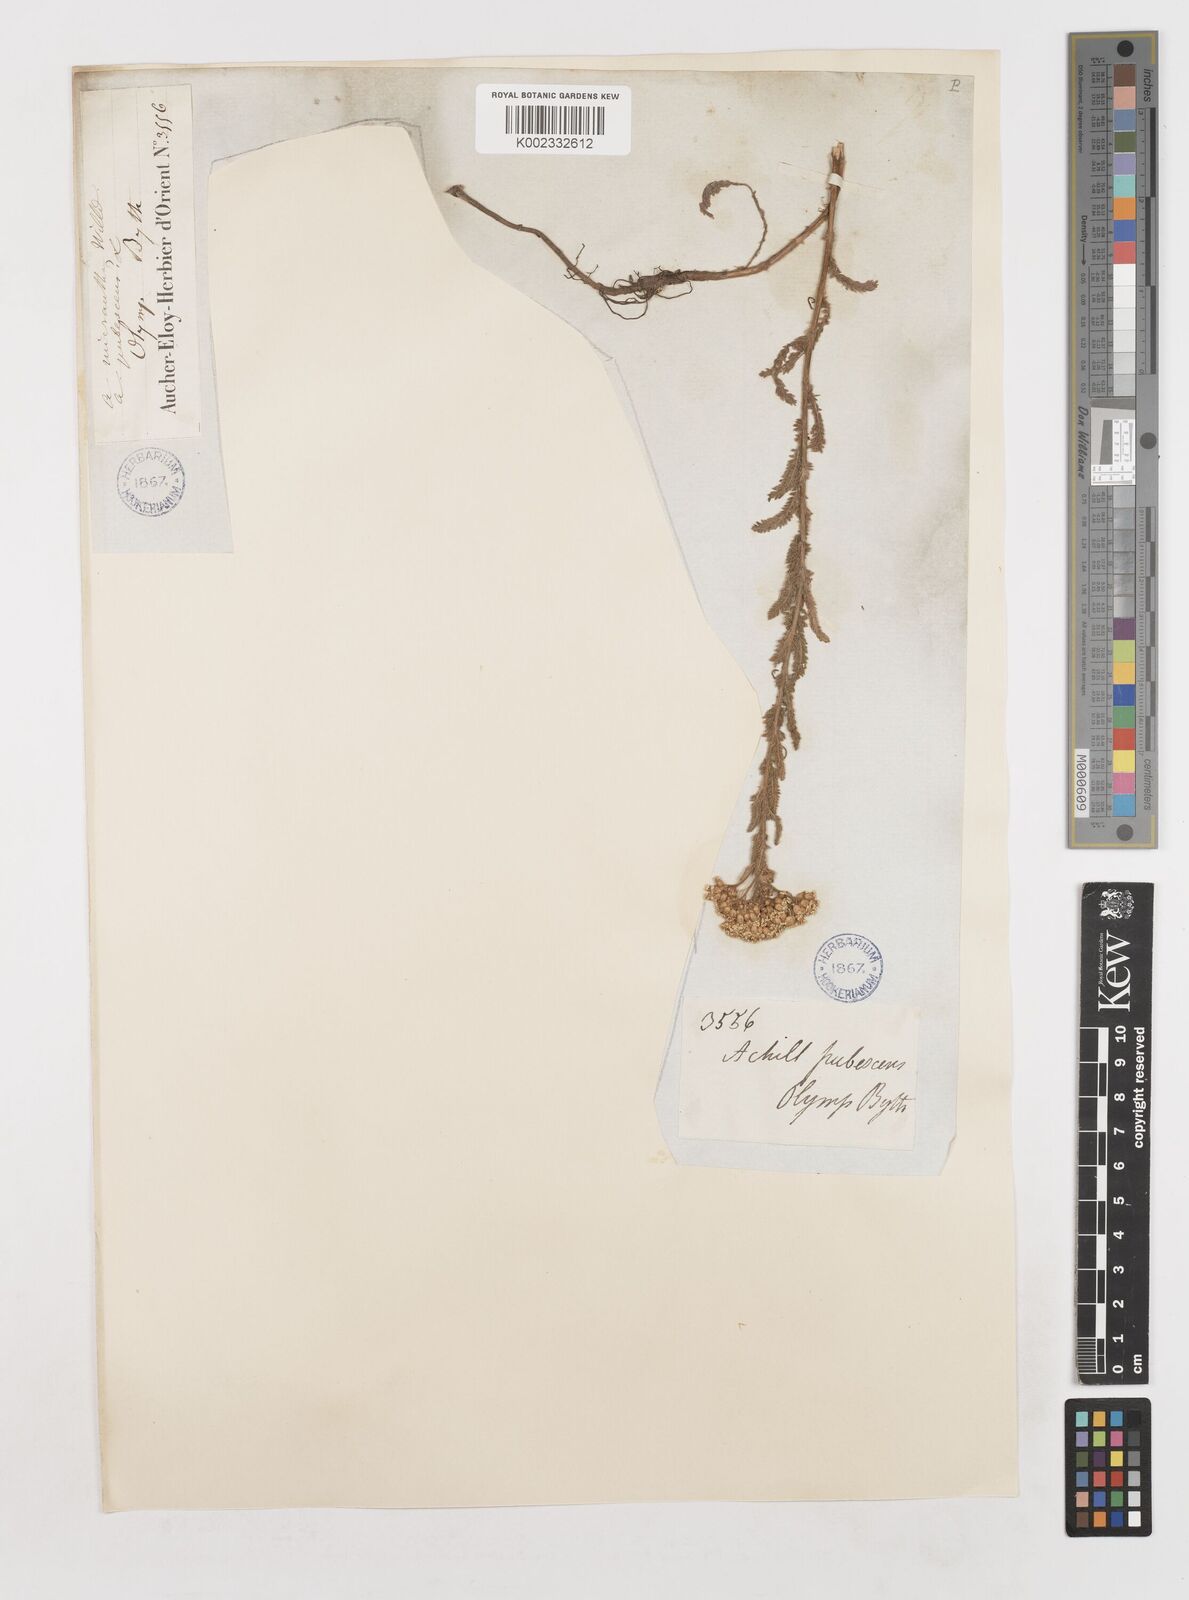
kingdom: Plantae
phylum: Tracheophyta
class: Magnoliopsida
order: Asterales
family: Asteraceae
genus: Achillea
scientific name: Achillea
